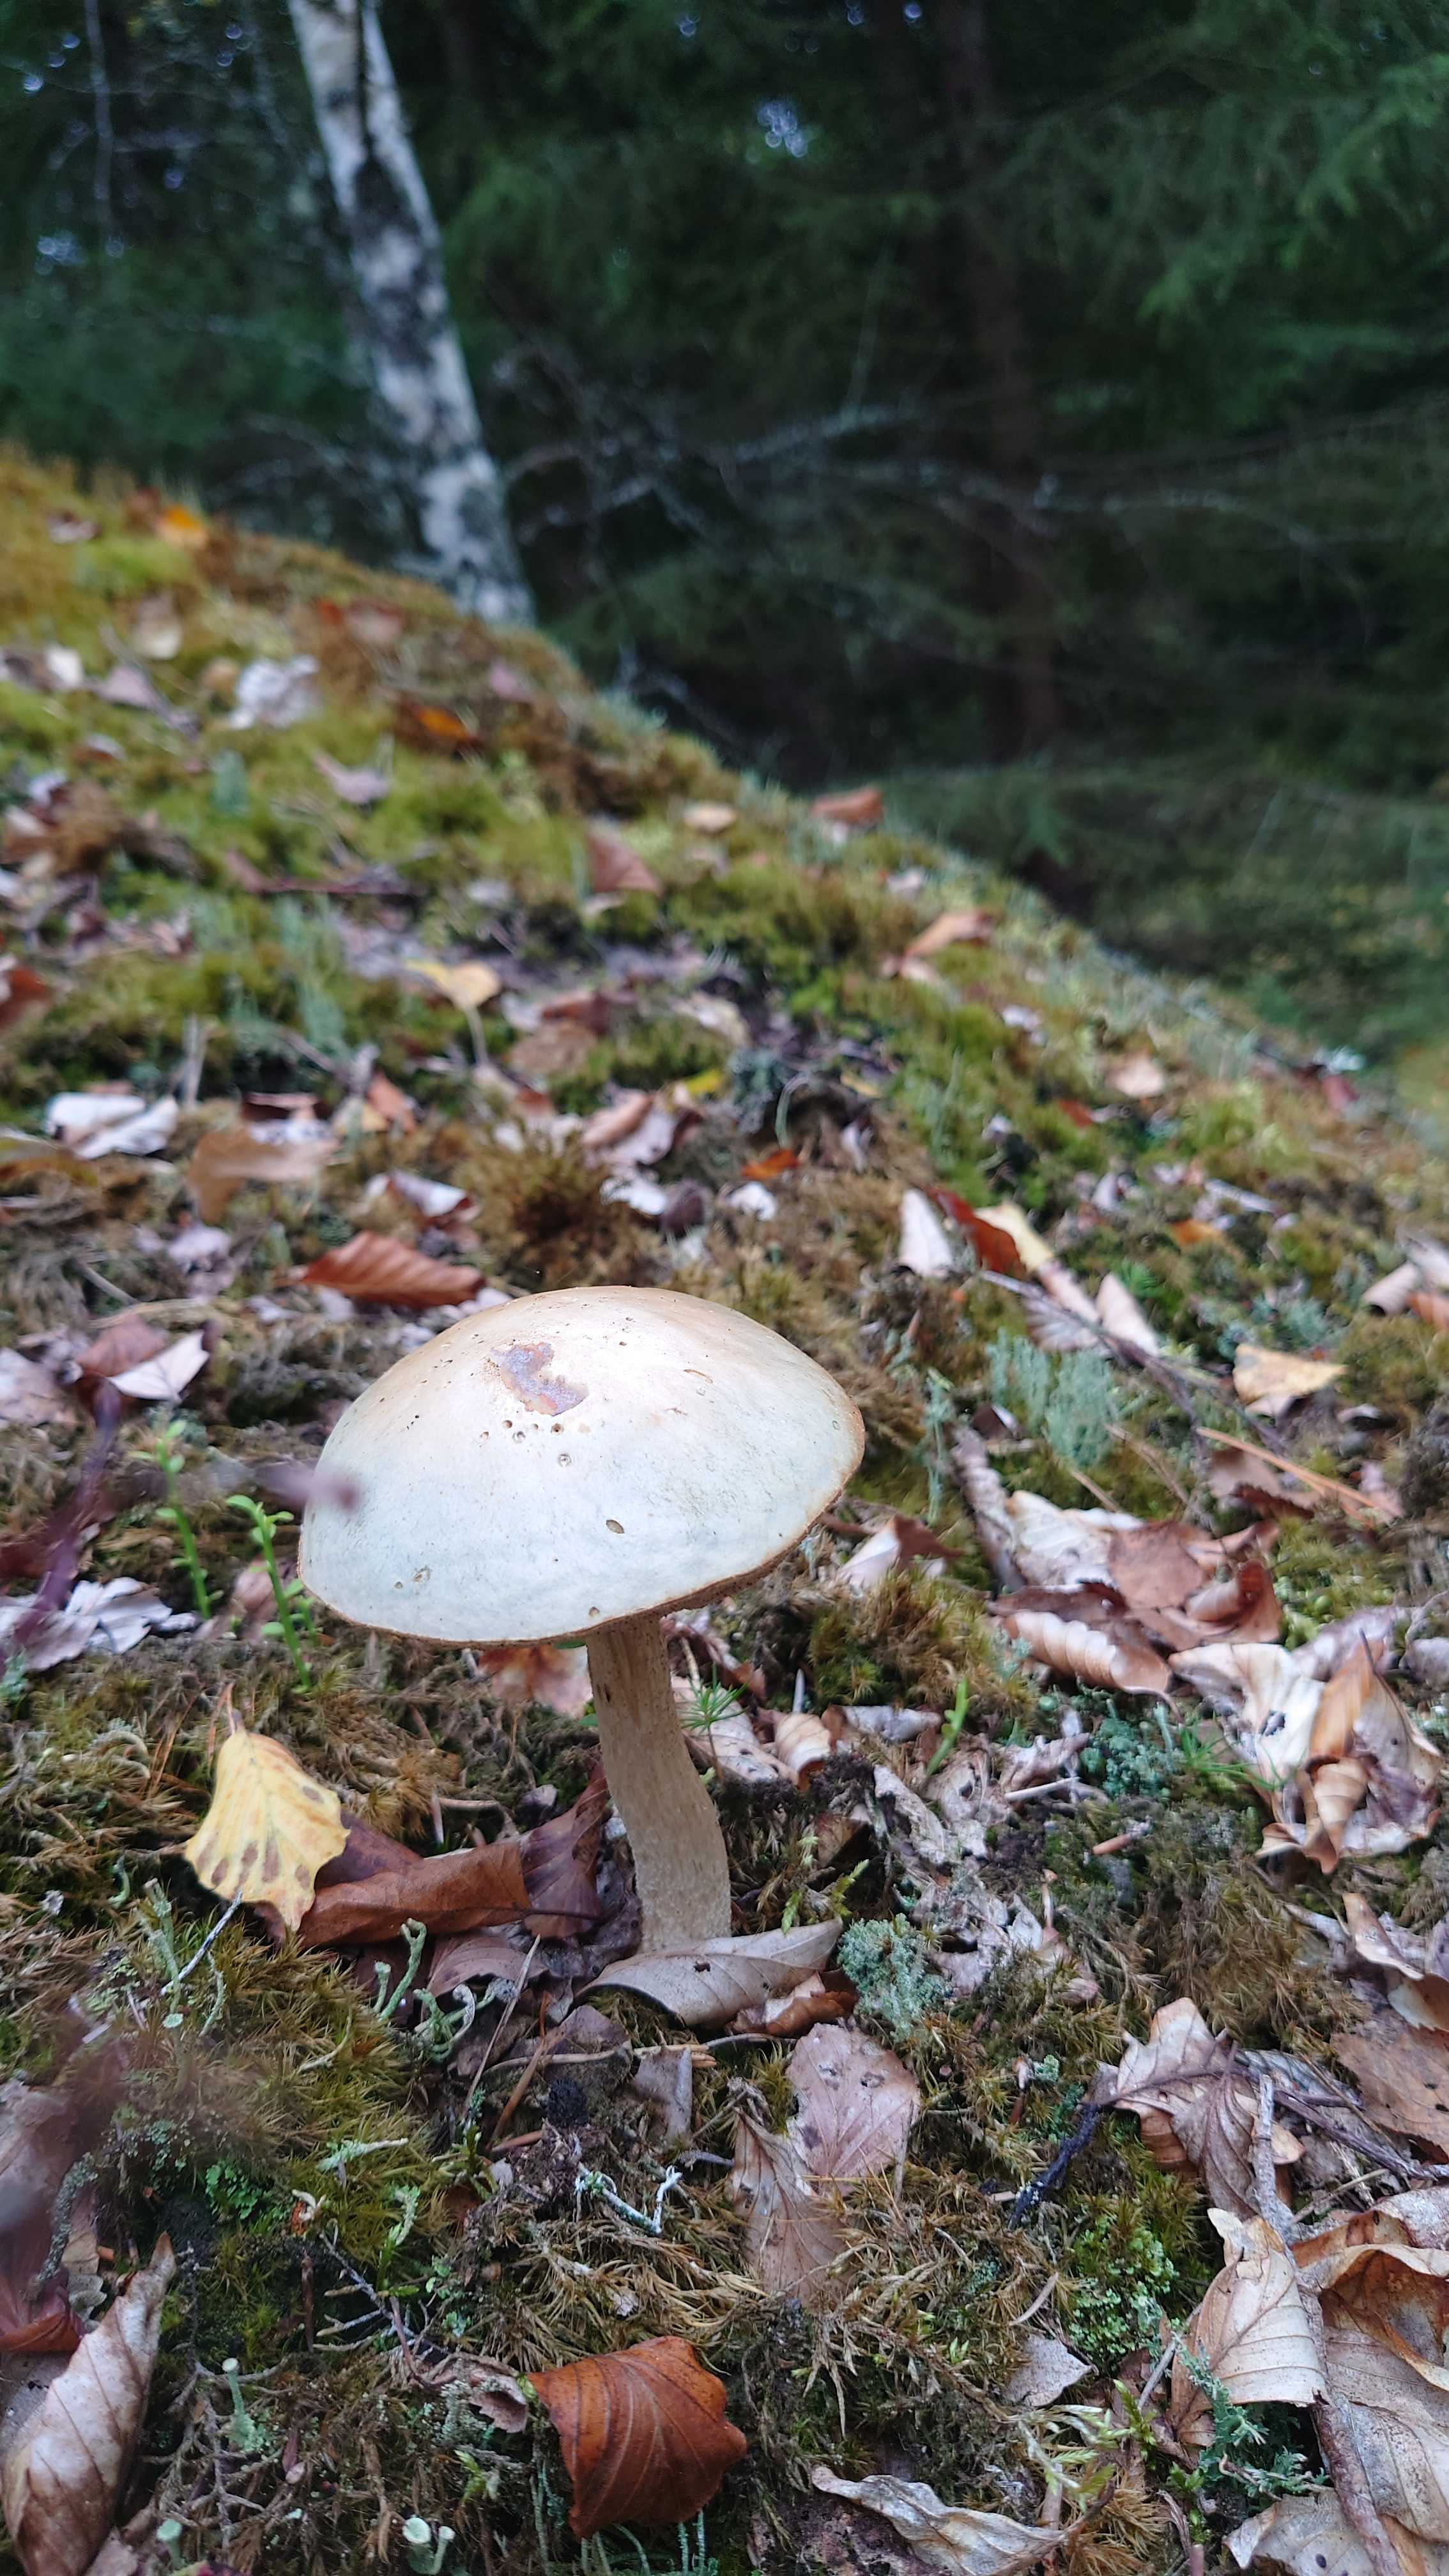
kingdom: Fungi
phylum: Basidiomycota
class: Agaricomycetes
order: Boletales
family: Boletaceae
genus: Leccinum
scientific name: Leccinum
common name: skælrørhat
